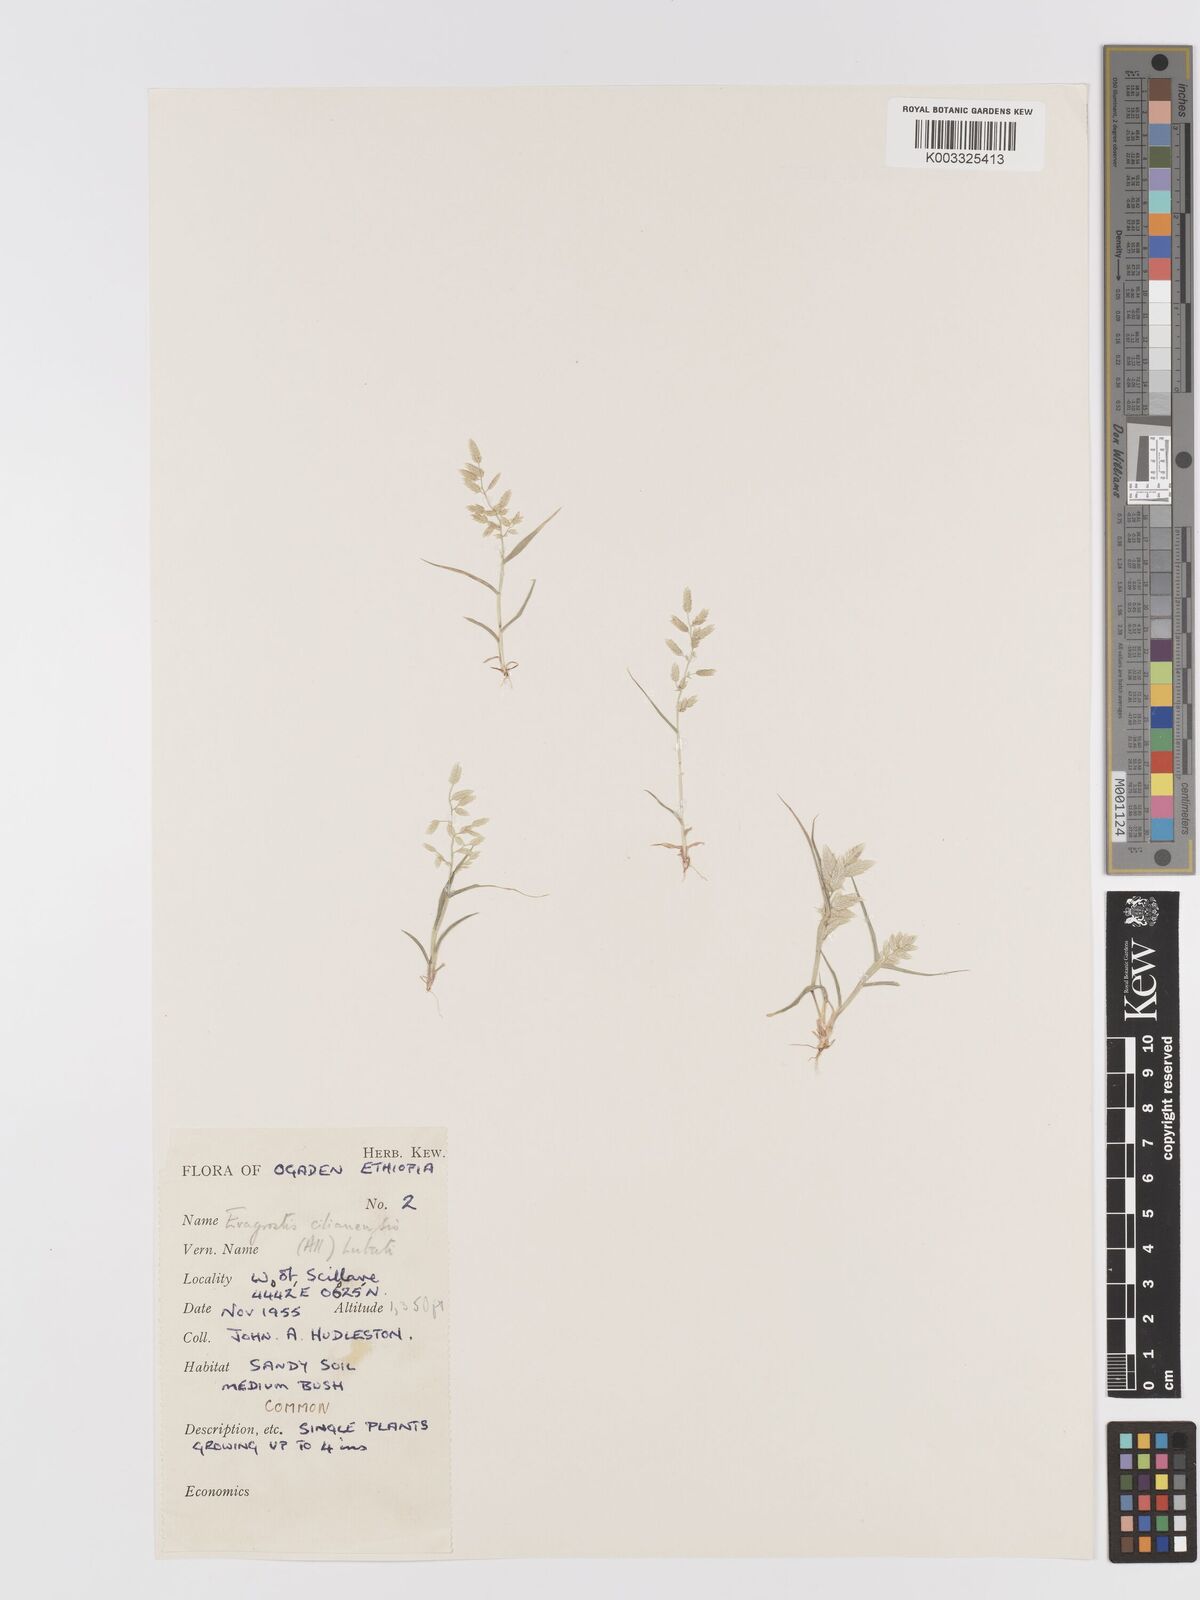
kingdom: Plantae
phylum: Tracheophyta
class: Liliopsida
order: Poales
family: Poaceae
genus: Eragrostis
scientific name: Eragrostis cilianensis
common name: Stinkgrass
